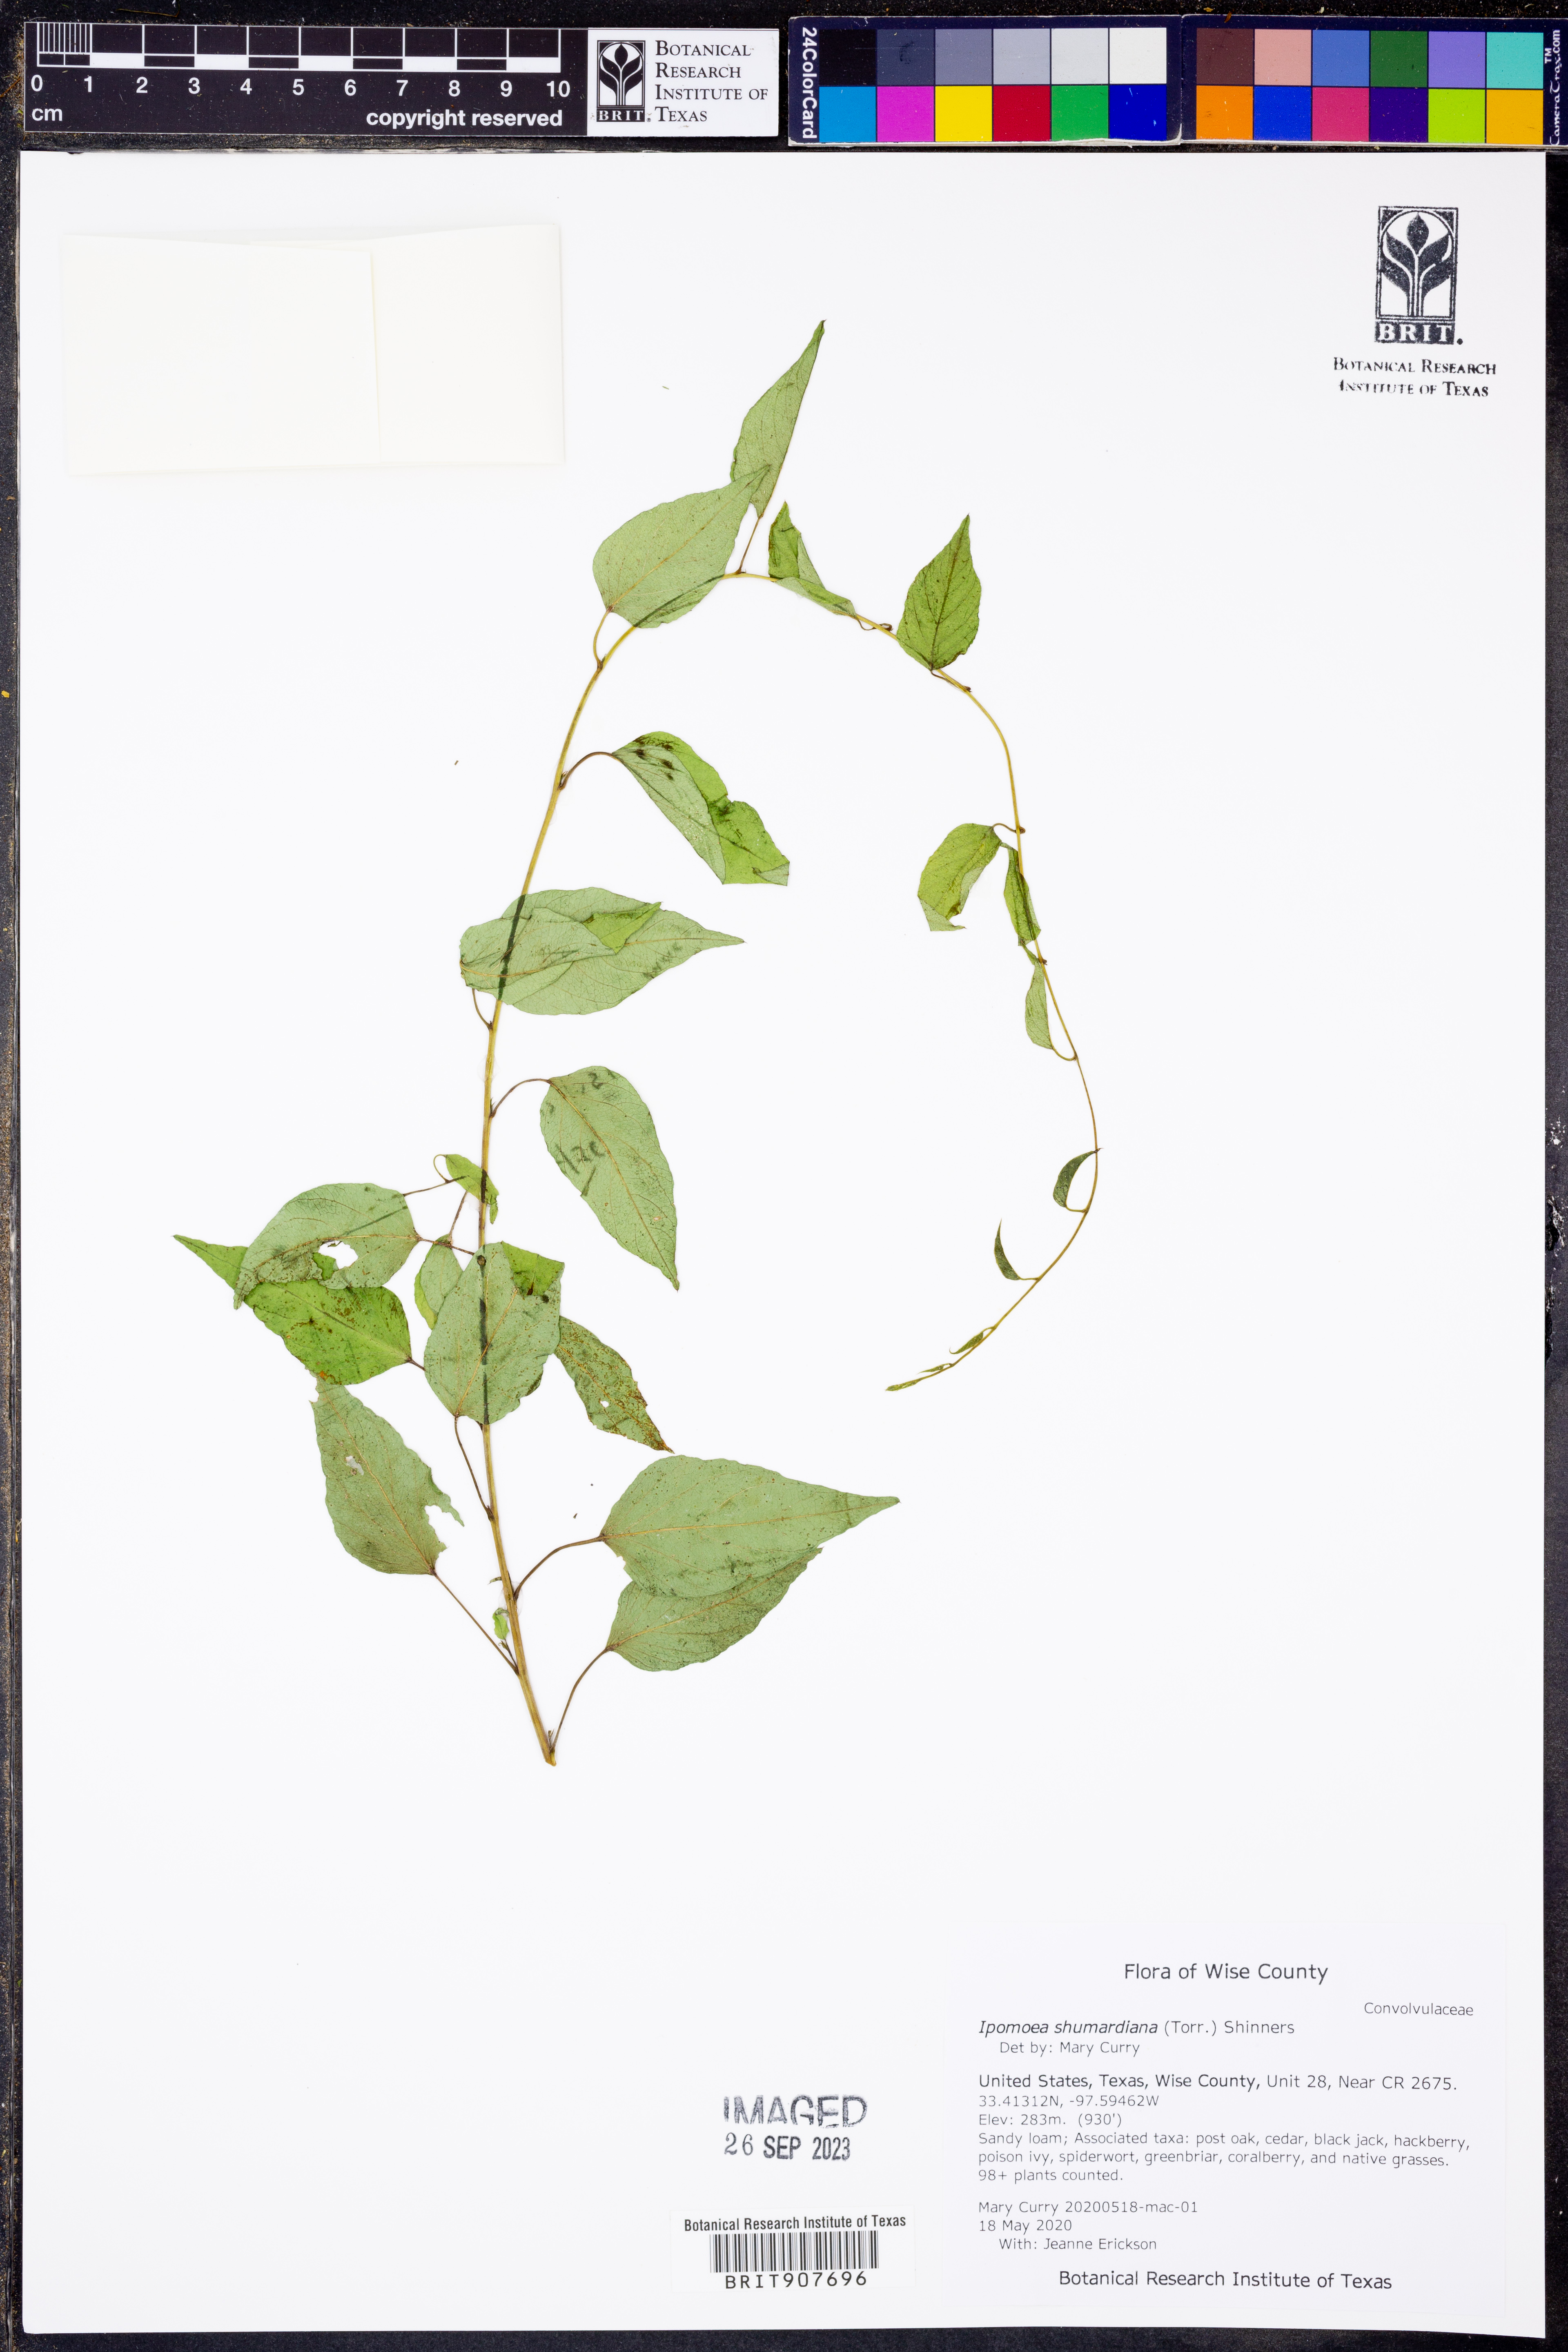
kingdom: Plantae
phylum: Tracheophyta
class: Magnoliopsida
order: Solanales
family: Convolvulaceae
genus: Ipomoea
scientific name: Ipomoea shumardiana
